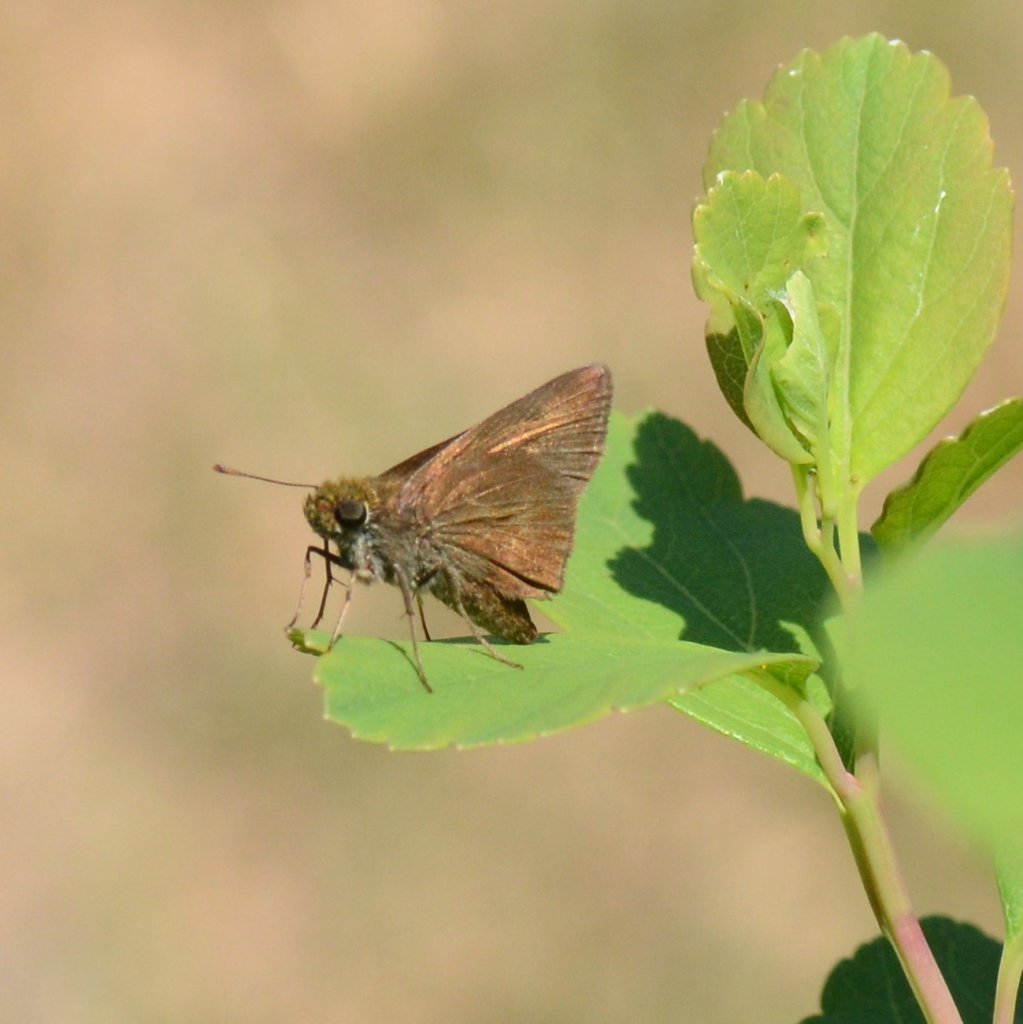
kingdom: Animalia
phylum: Arthropoda
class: Insecta
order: Lepidoptera
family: Hesperiidae
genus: Euphyes
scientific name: Euphyes vestris
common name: Dun Skipper
